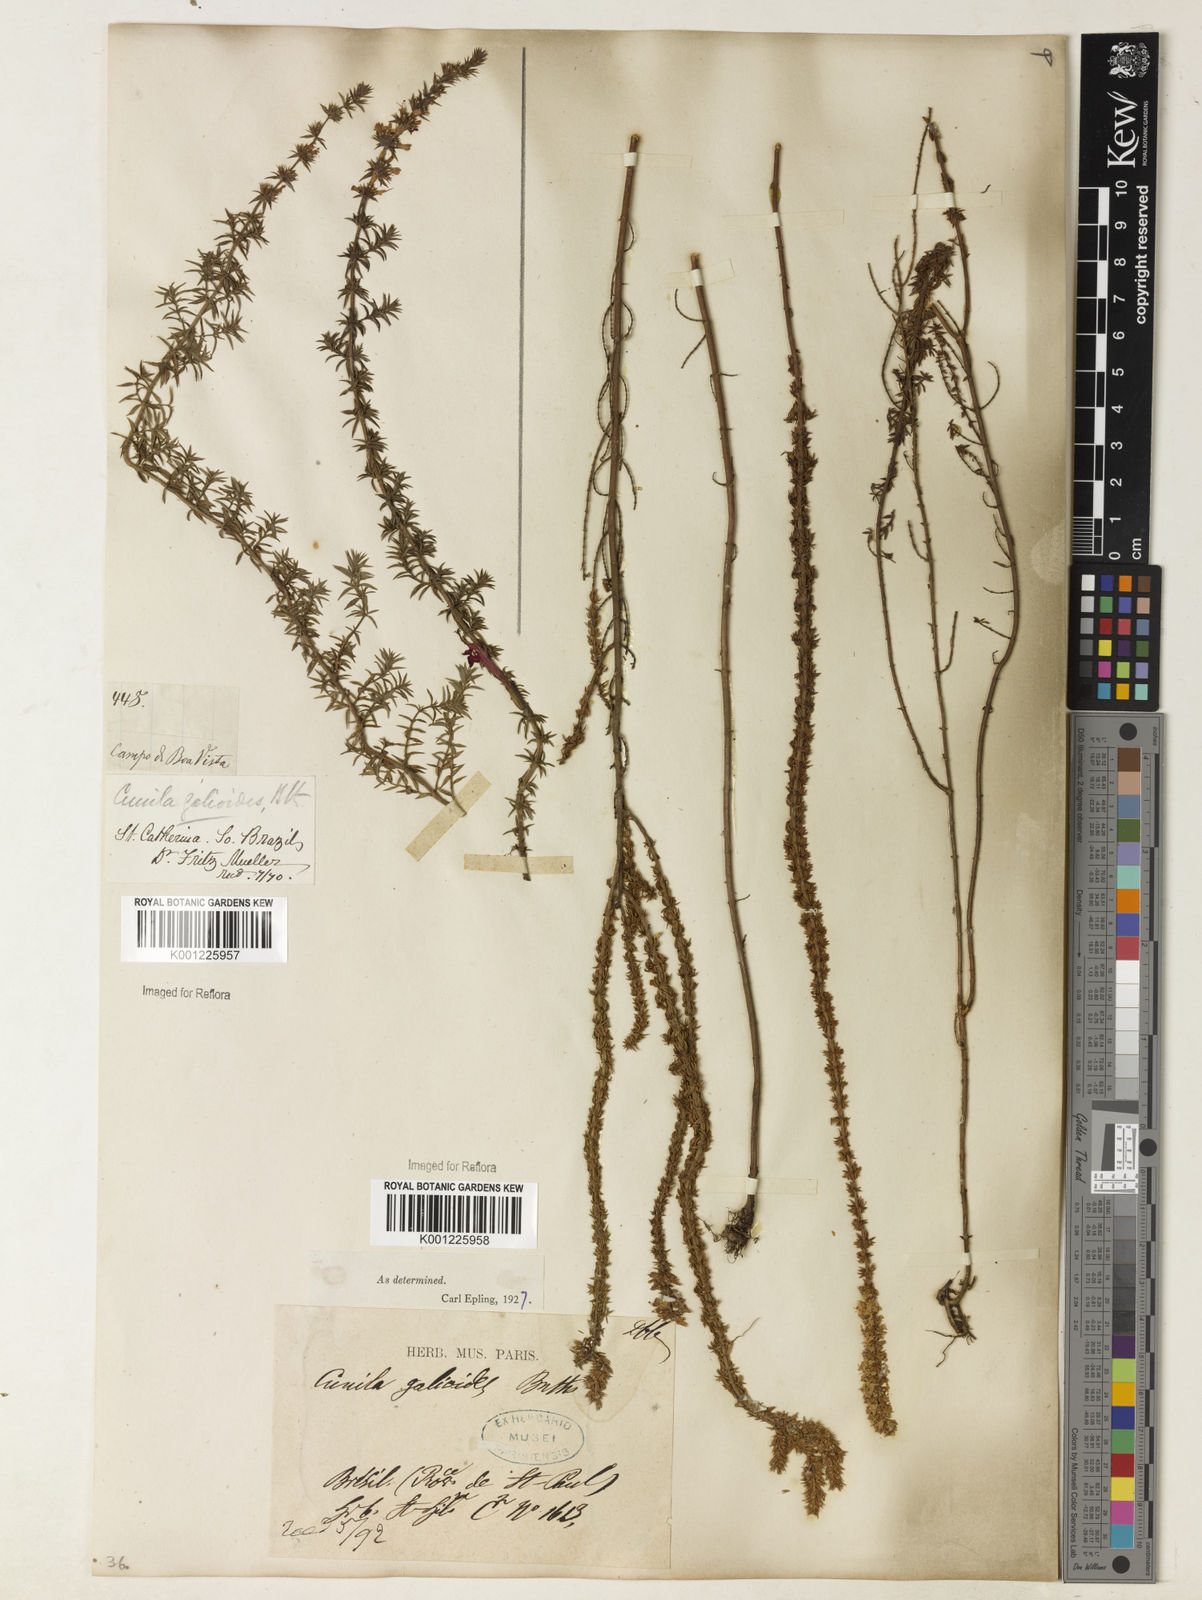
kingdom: Plantae
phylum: Tracheophyta
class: Magnoliopsida
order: Lamiales
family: Lamiaceae
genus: Cunila
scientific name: Cunila galioides
